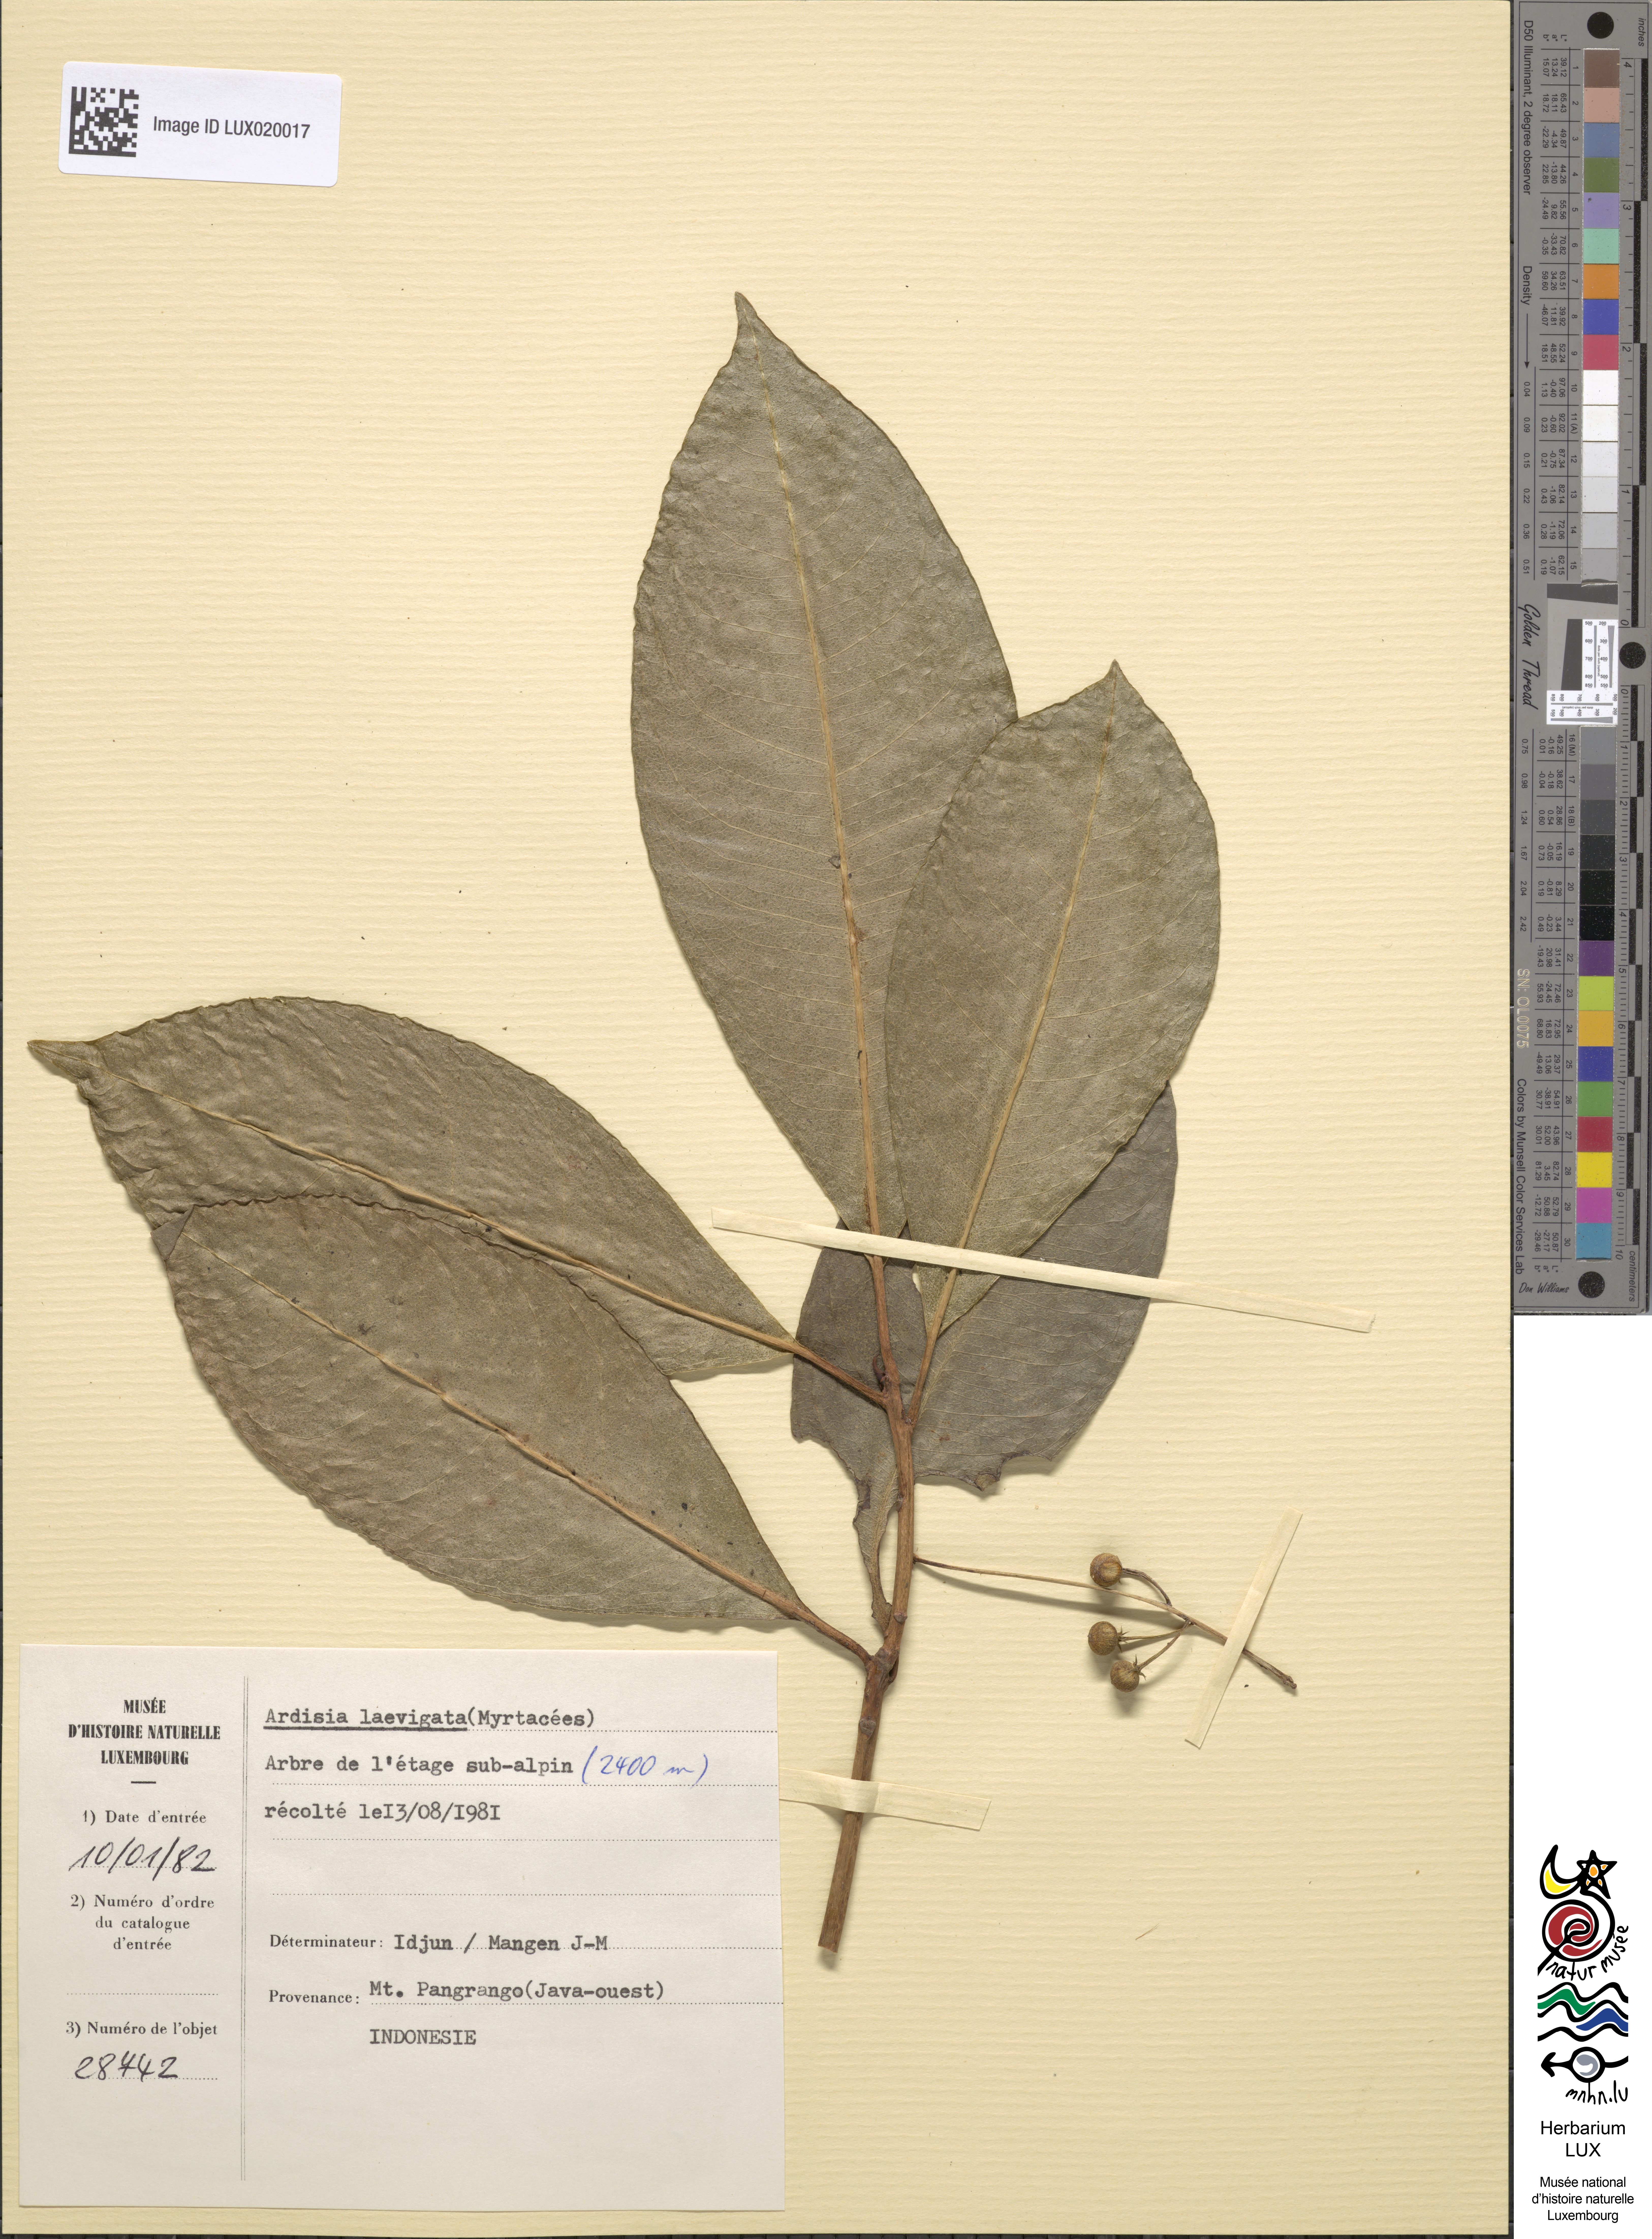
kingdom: Plantae
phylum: Tracheophyta
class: Magnoliopsida
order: Ericales
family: Primulaceae
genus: Ardisia
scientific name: Ardisia laevigata
